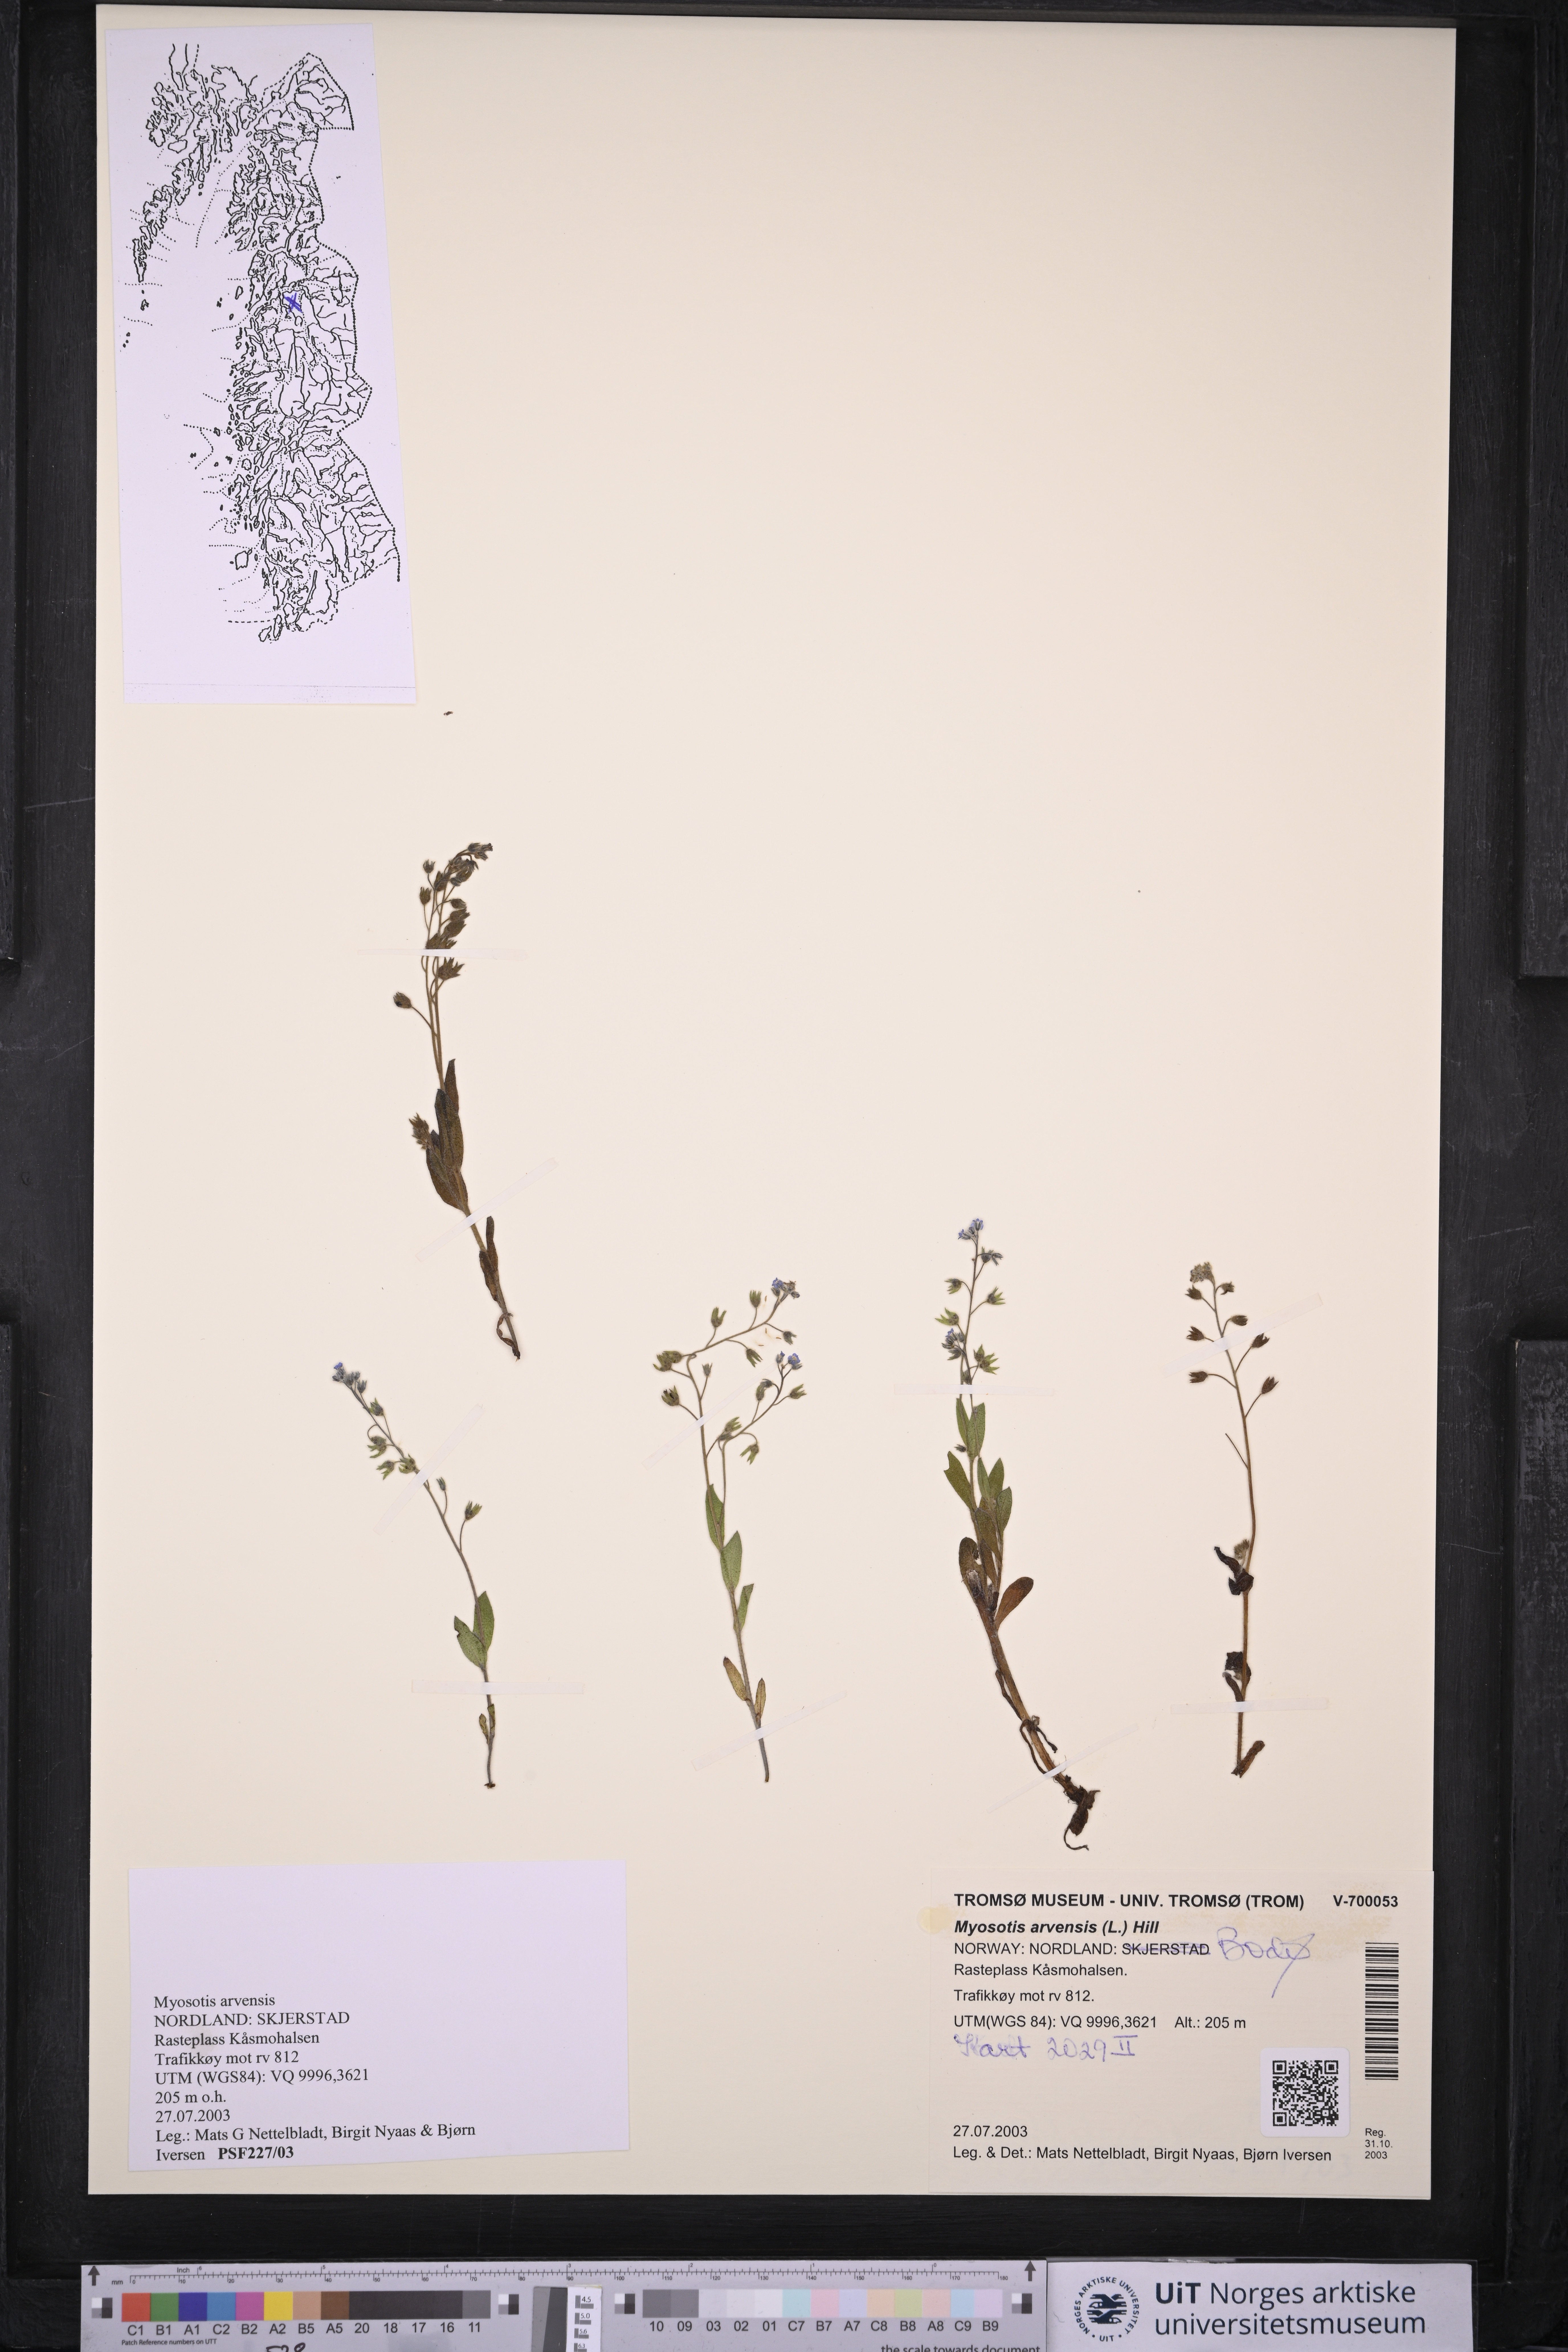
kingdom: Plantae
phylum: Tracheophyta
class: Magnoliopsida
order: Boraginales
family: Boraginaceae
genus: Myosotis
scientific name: Myosotis arvensis
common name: Field forget-me-not
